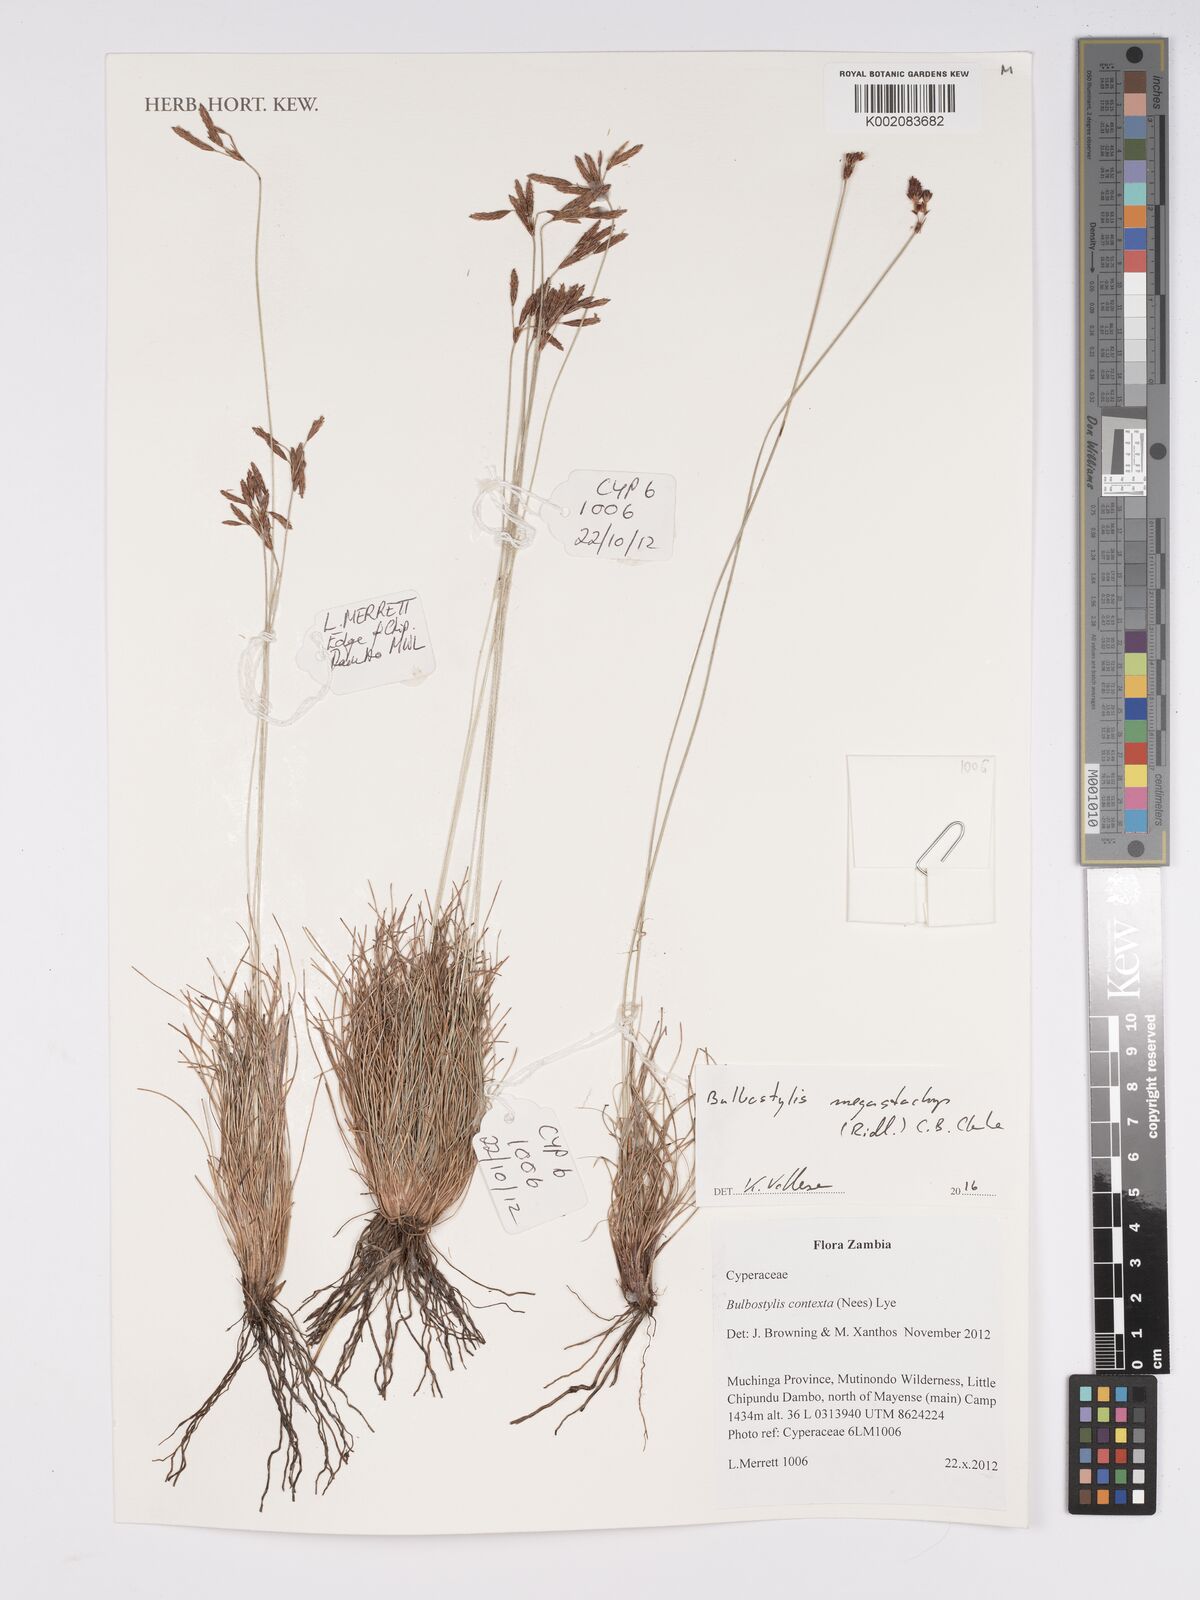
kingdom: Plantae
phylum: Tracheophyta
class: Liliopsida
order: Poales
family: Cyperaceae
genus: Bulbostylis
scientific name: Bulbostylis schoenoides
